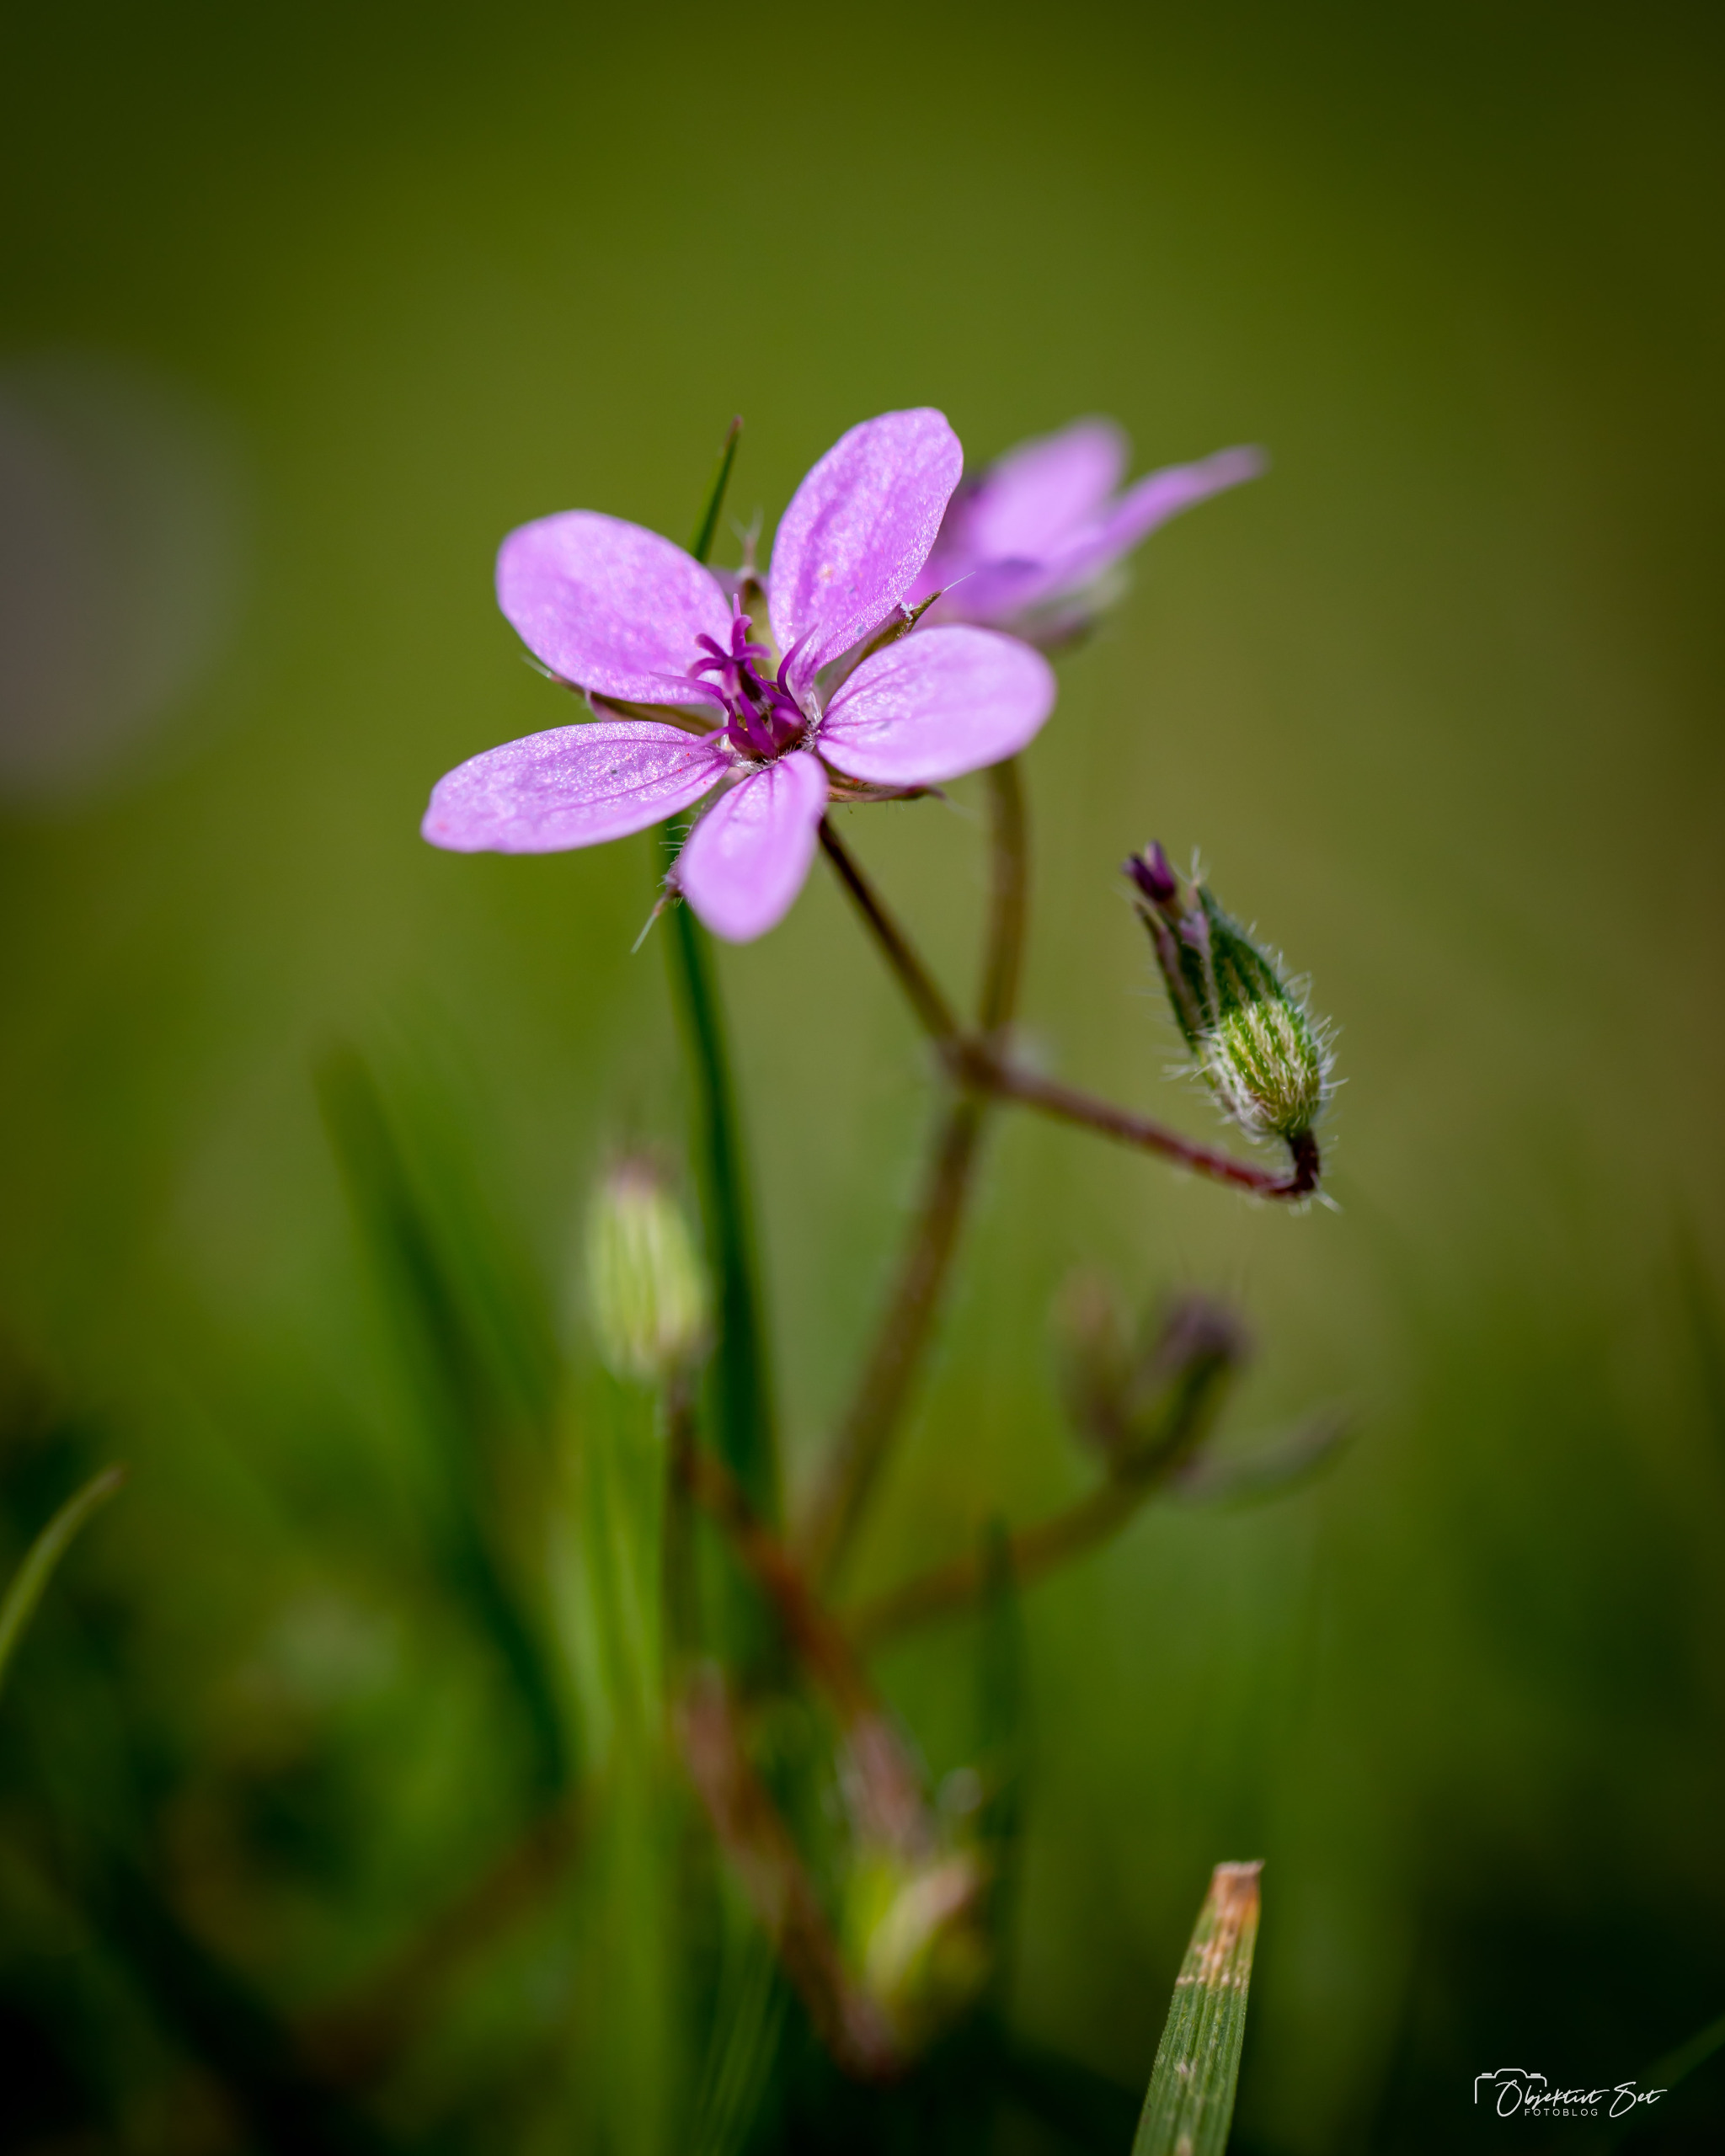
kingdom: Plantae
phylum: Tracheophyta
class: Magnoliopsida
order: Geraniales
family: Geraniaceae
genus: Erodium
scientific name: Erodium cicutarium
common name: Hejrenæb
